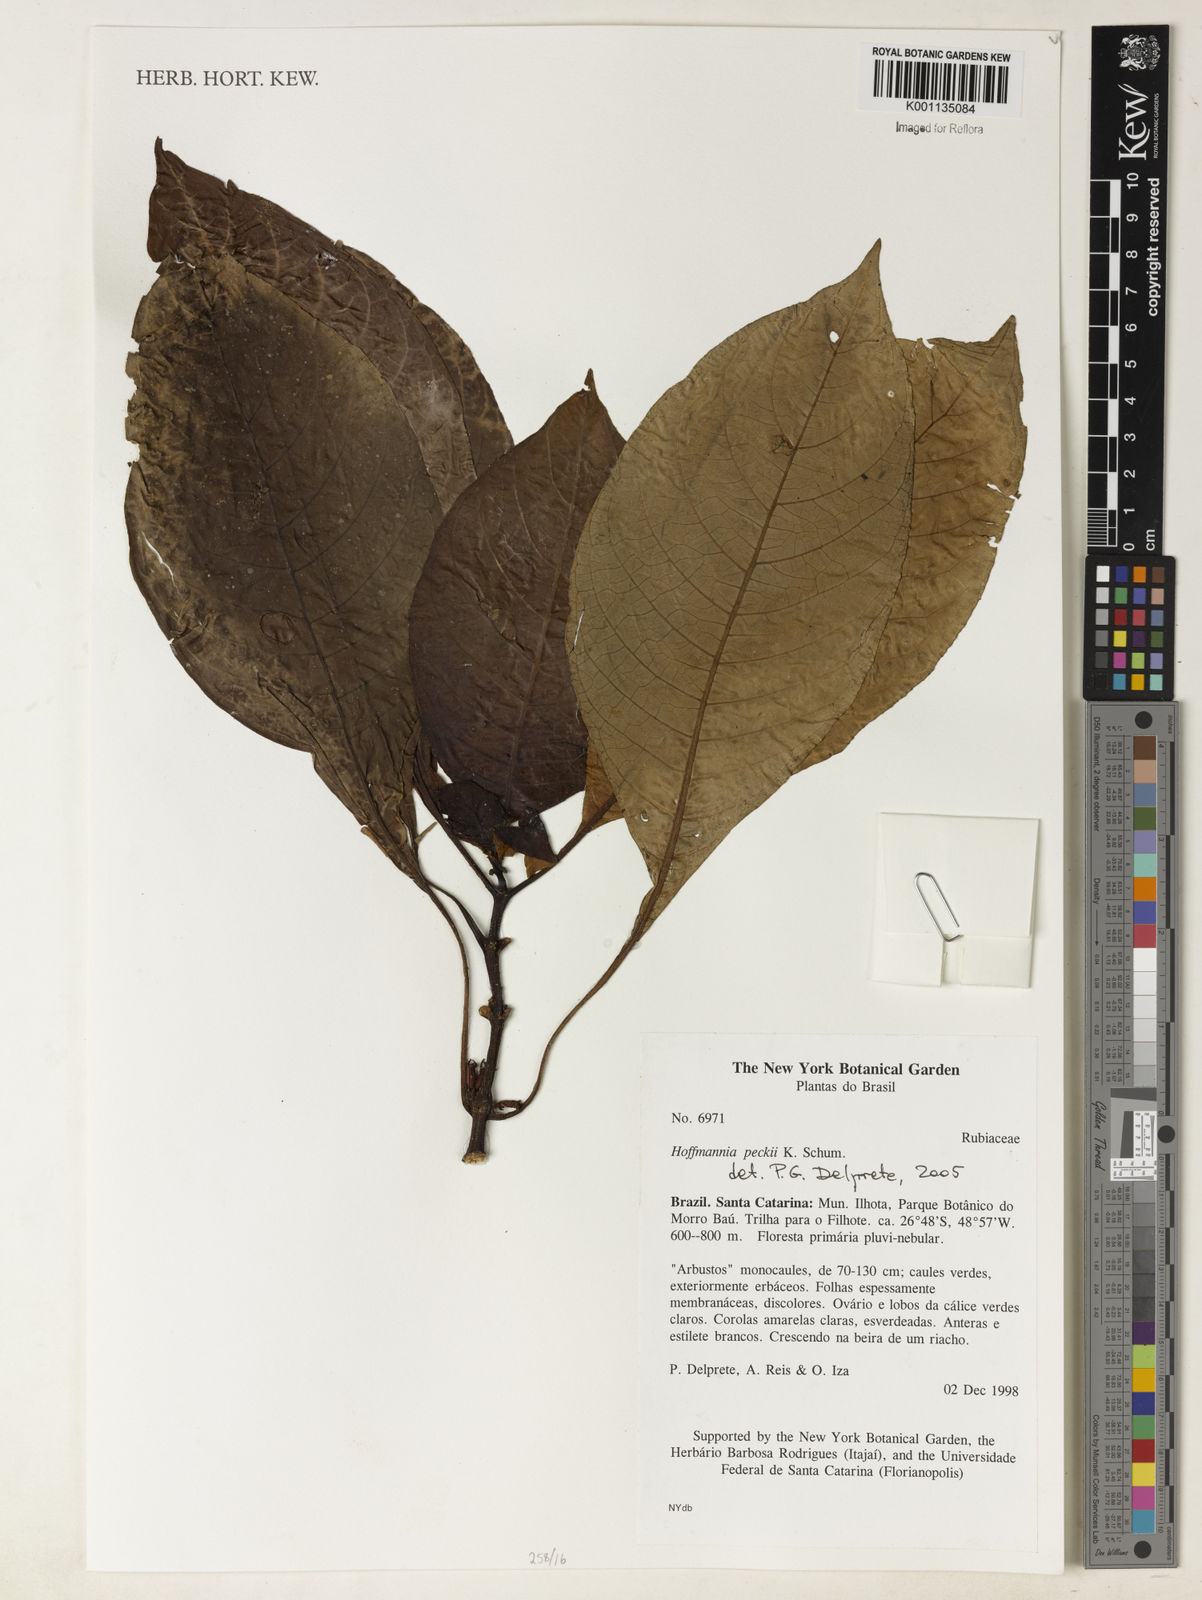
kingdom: Plantae
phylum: Tracheophyta
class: Magnoliopsida
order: Gentianales
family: Rubiaceae
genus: Hoffmannia
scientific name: Hoffmannia peckii
